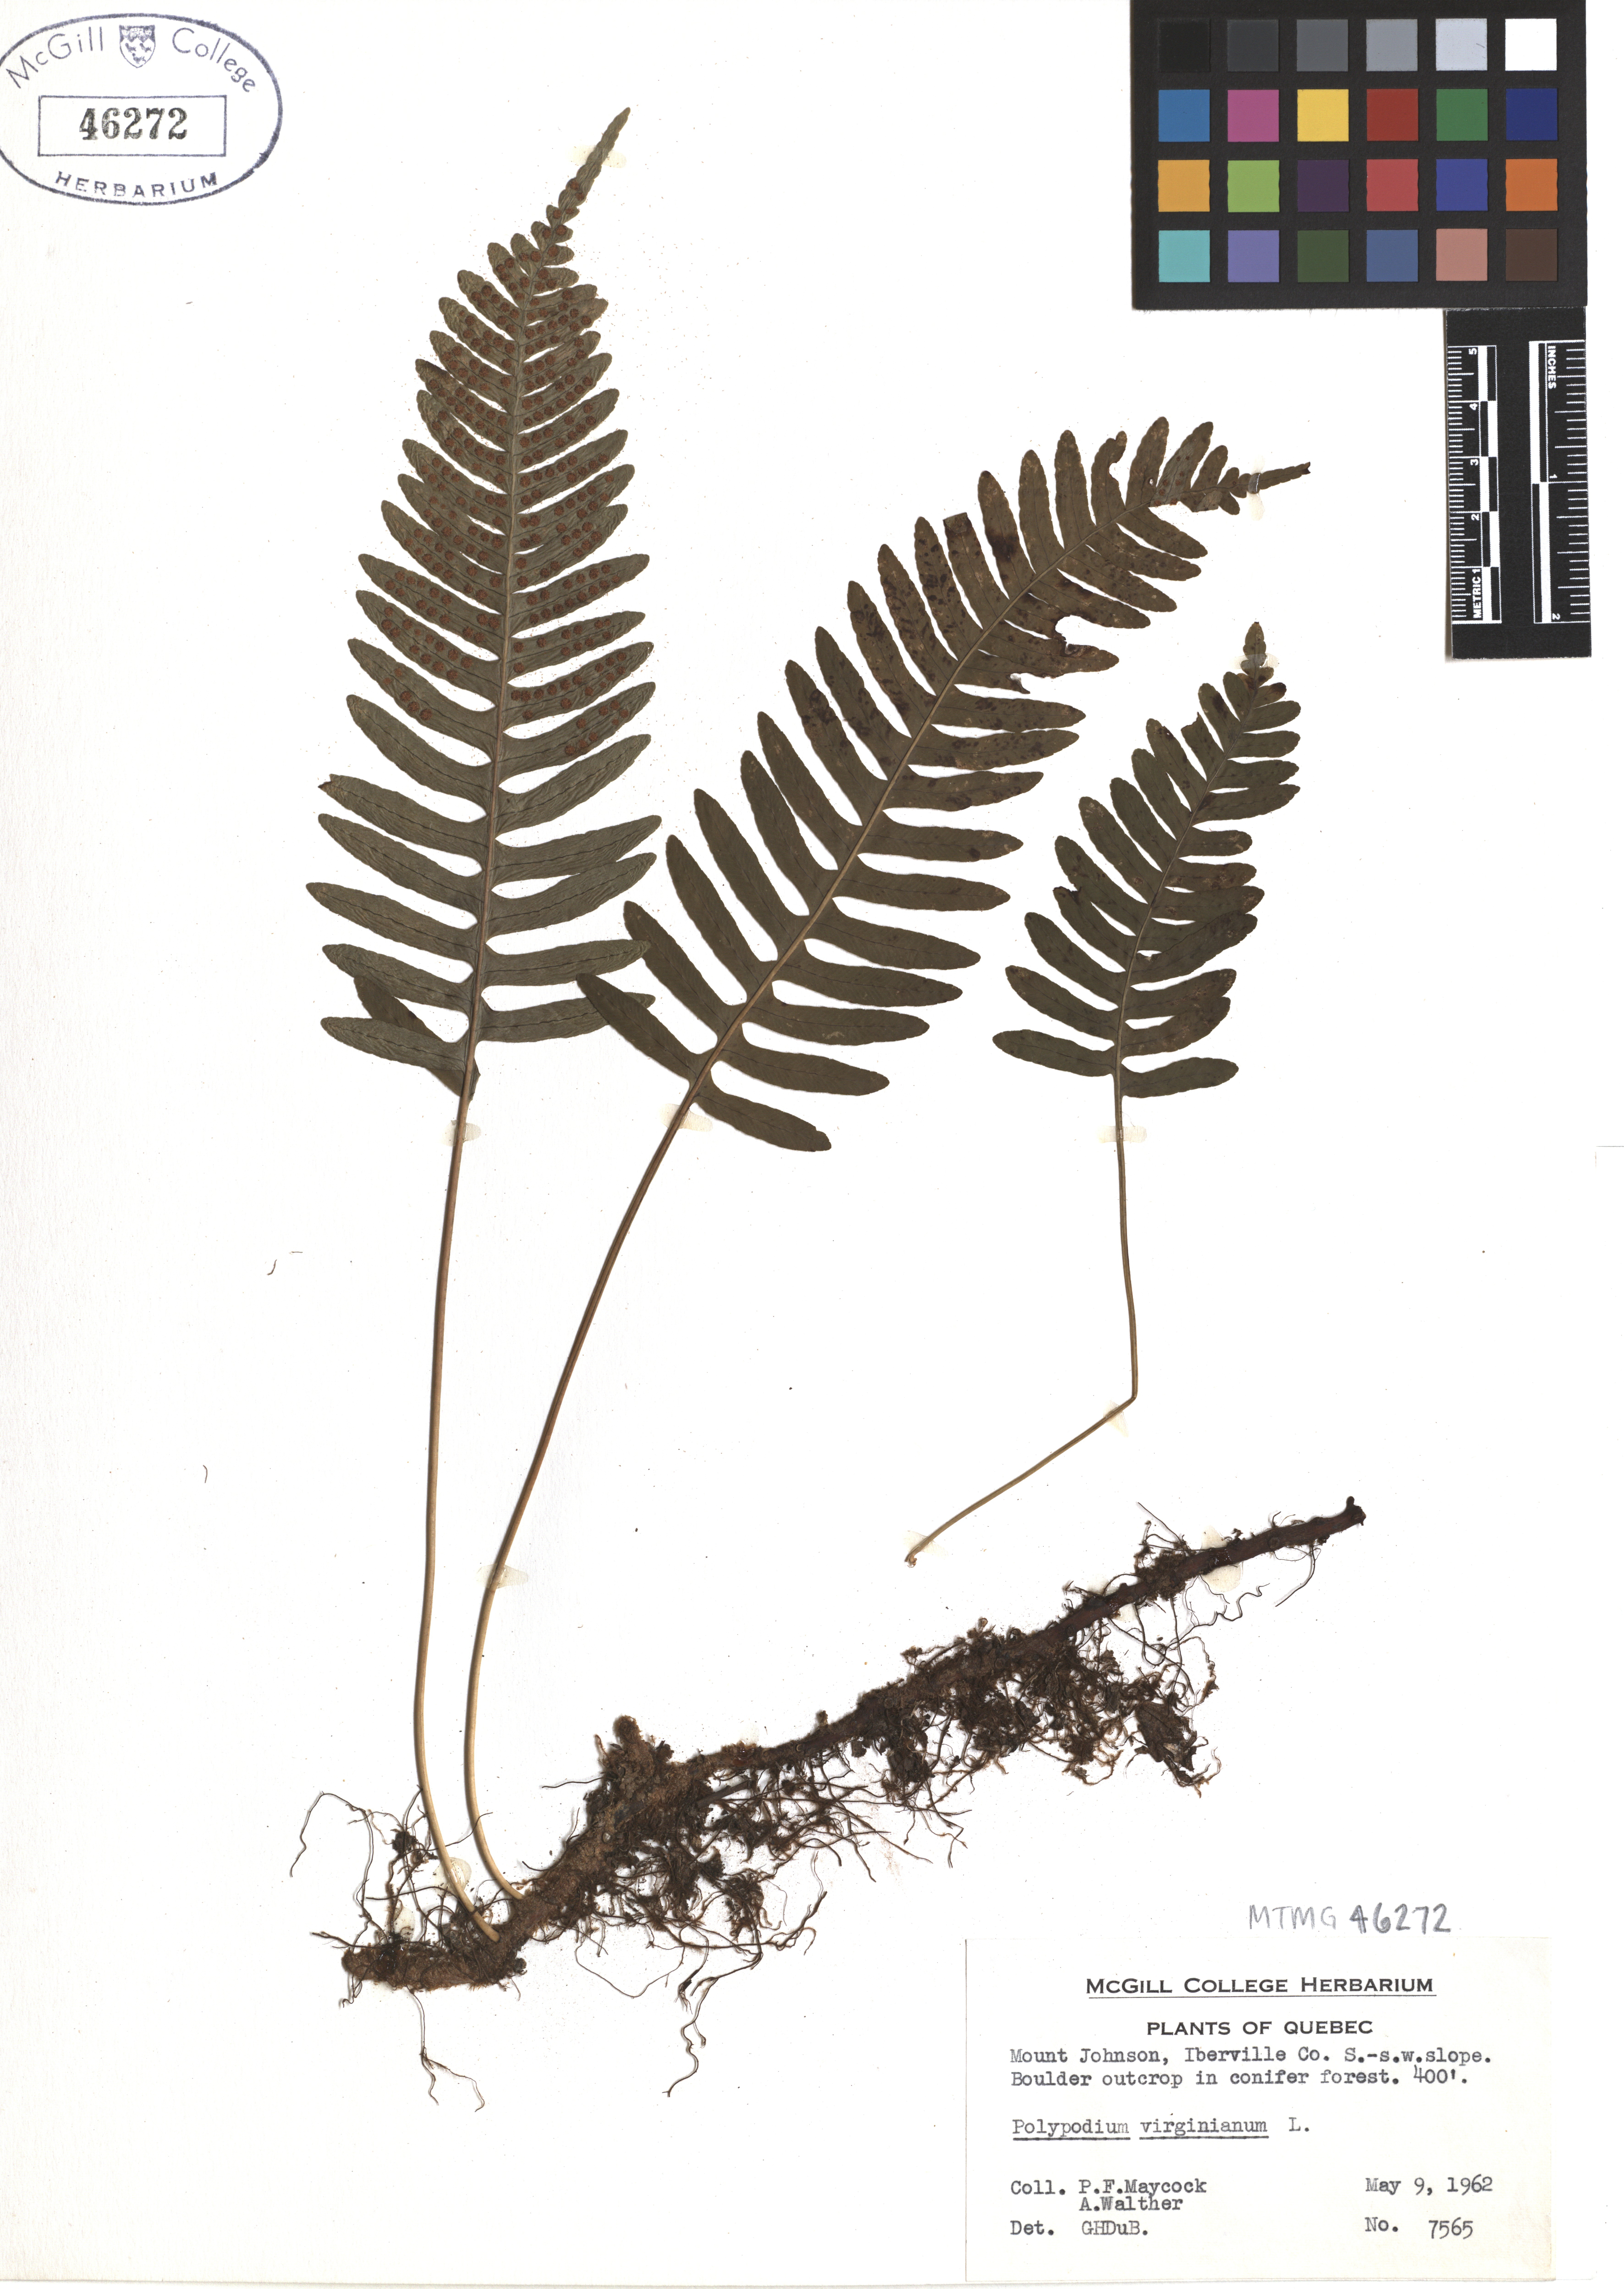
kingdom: Plantae
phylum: Tracheophyta
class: Polypodiopsida
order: Polypodiales
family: Polypodiaceae
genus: Polypodium
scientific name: Polypodium virginianum
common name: American wall fern
